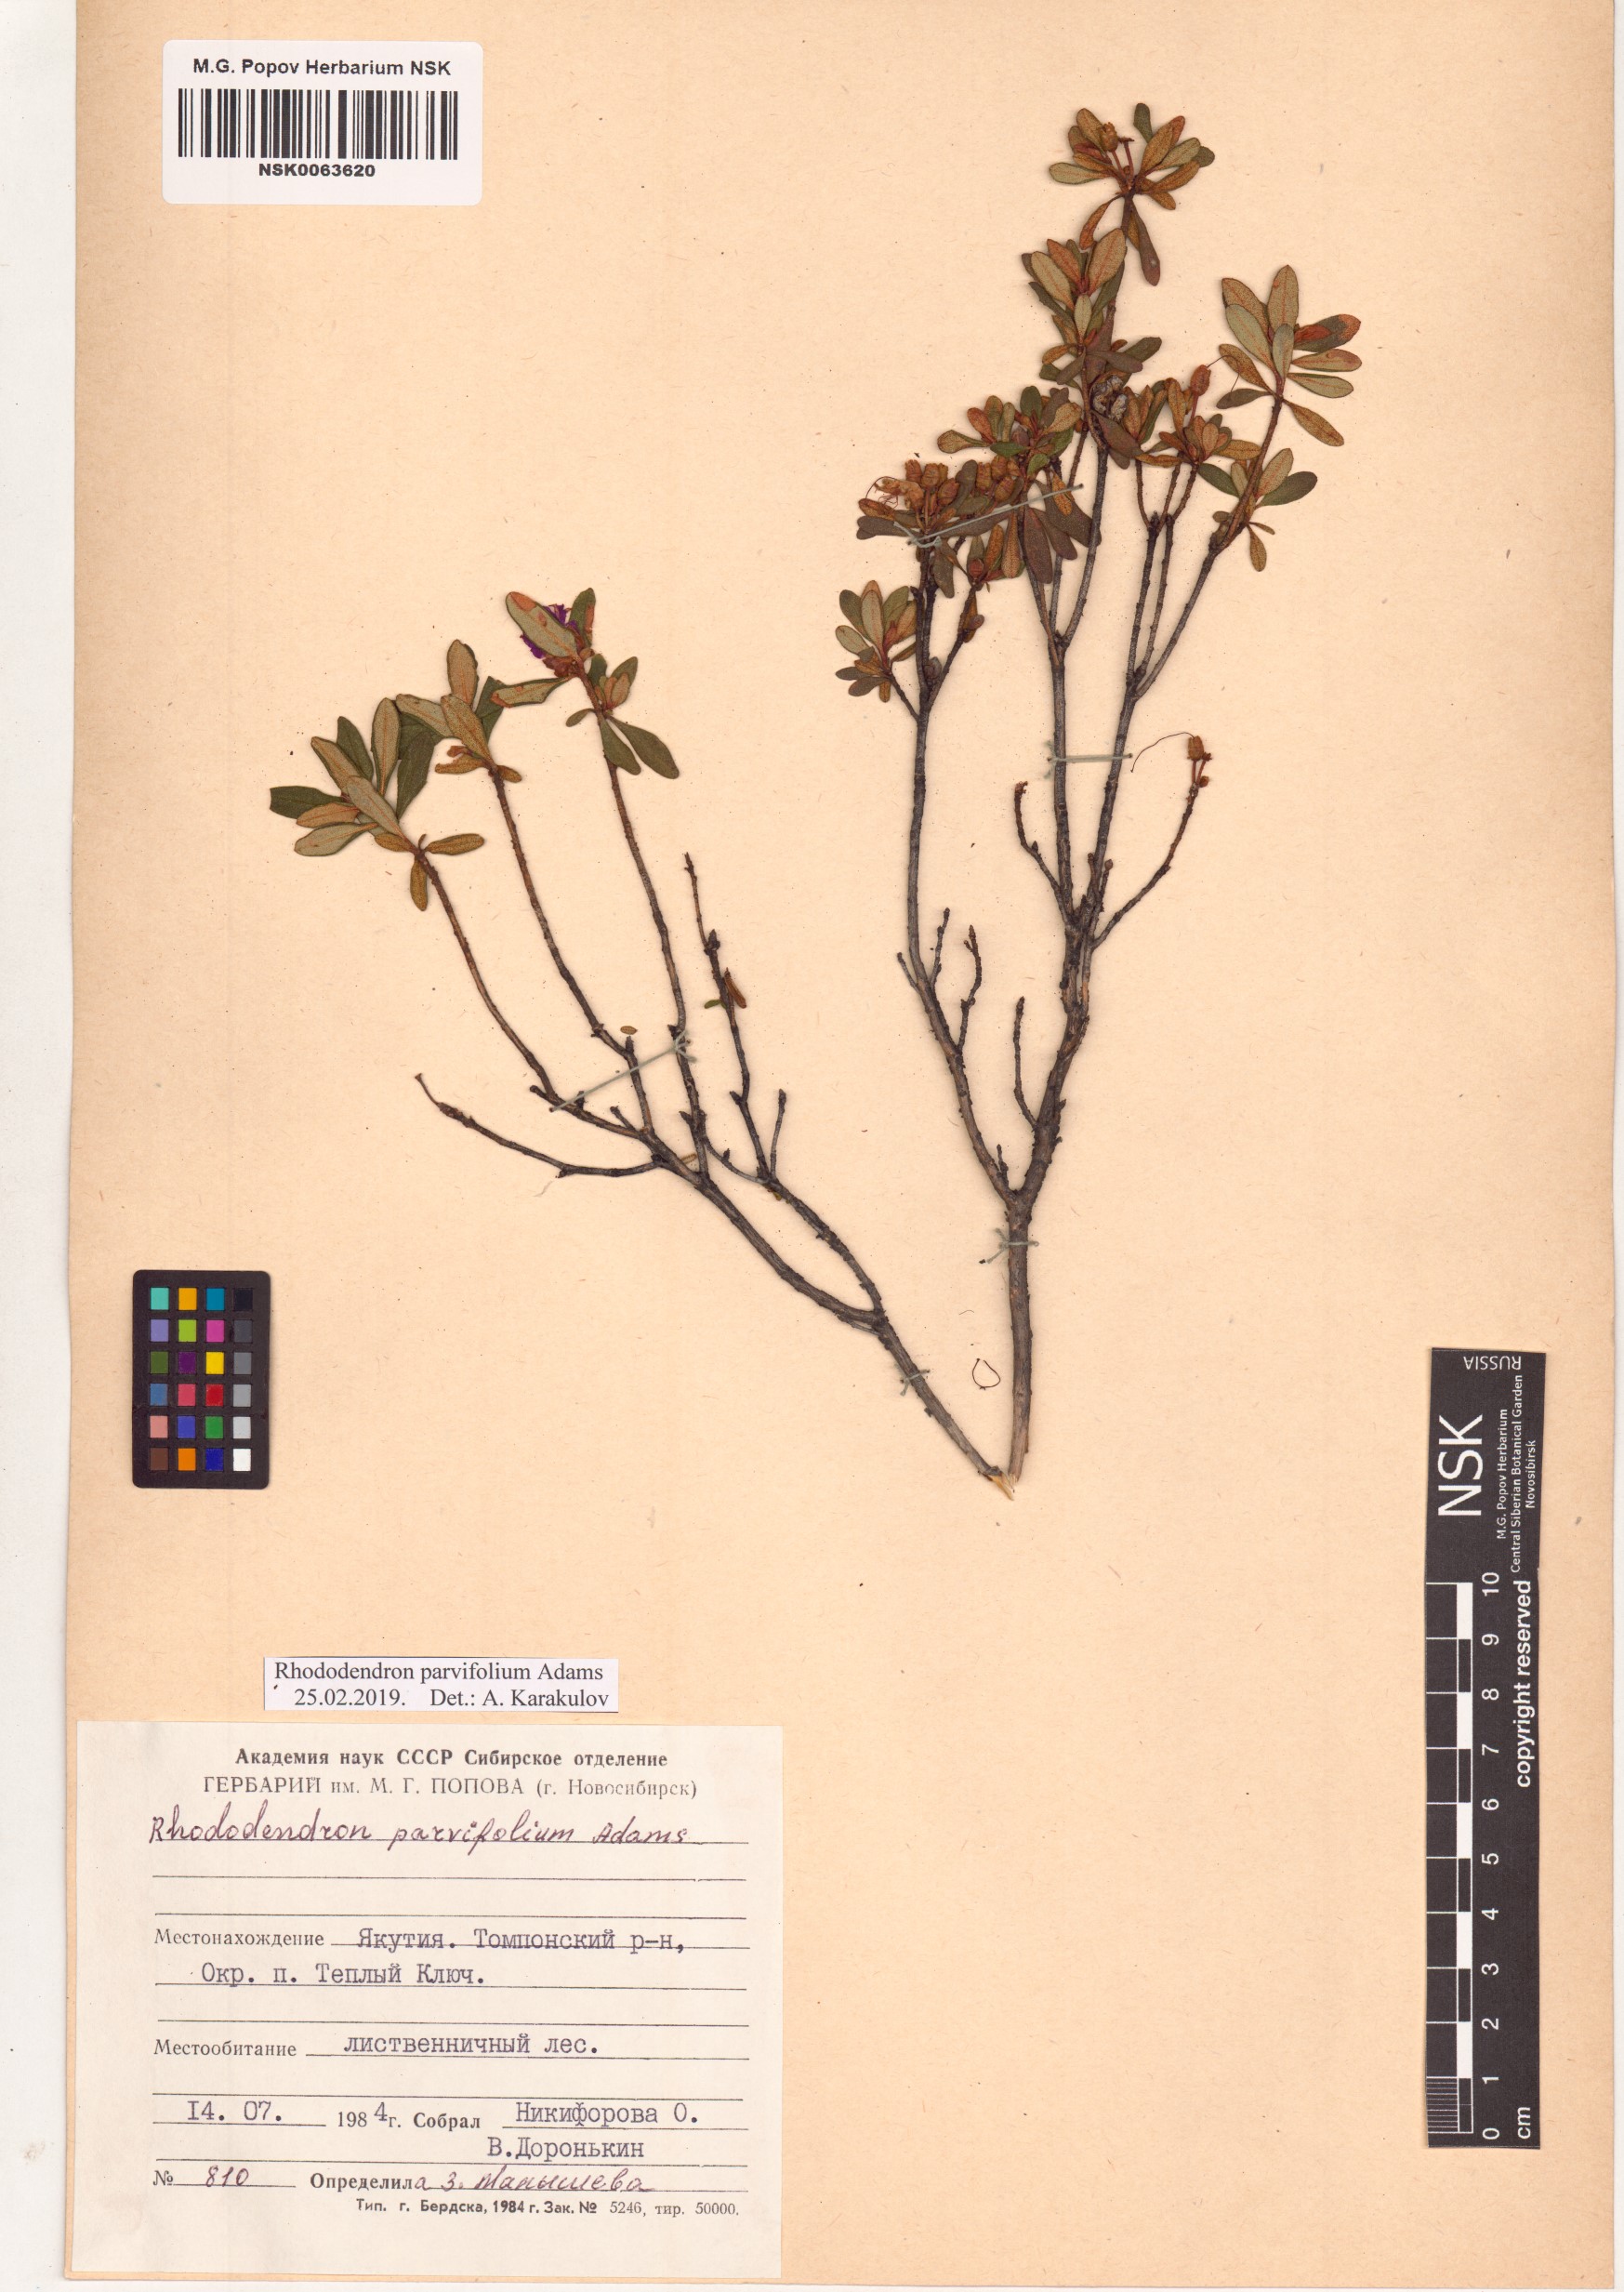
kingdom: Plantae
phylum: Tracheophyta
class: Magnoliopsida
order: Ericales
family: Ericaceae
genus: Rhododendron
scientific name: Rhododendron parvifolium
